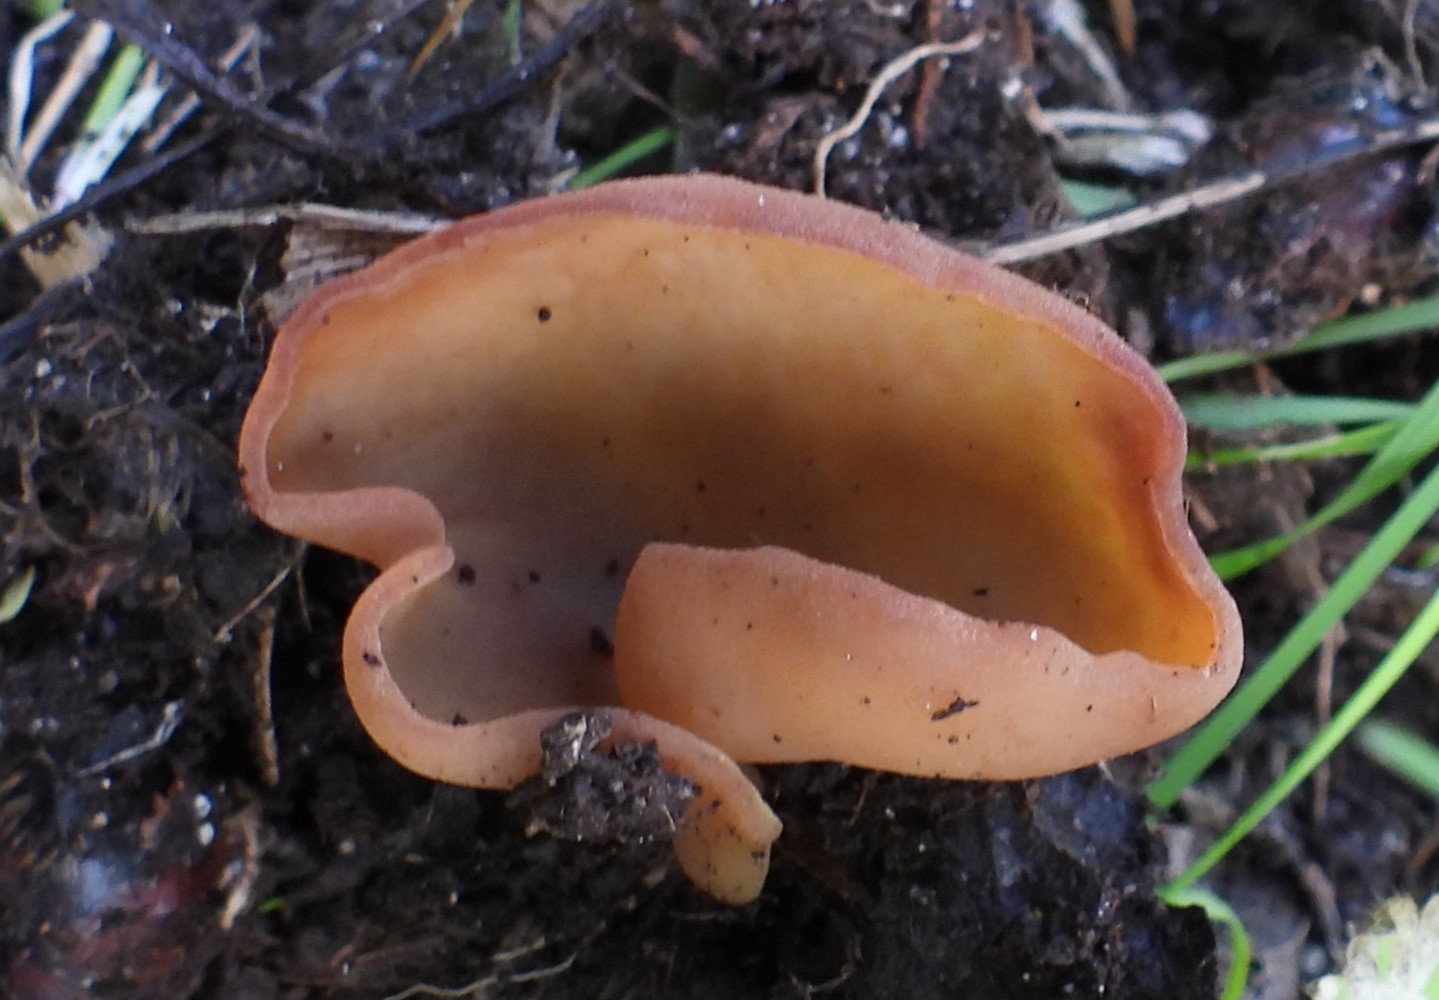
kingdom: Fungi
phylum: Ascomycota
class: Pezizomycetes
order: Pezizales
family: Pezizaceae
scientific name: Pezizaceae
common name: bægersvampfamilien
